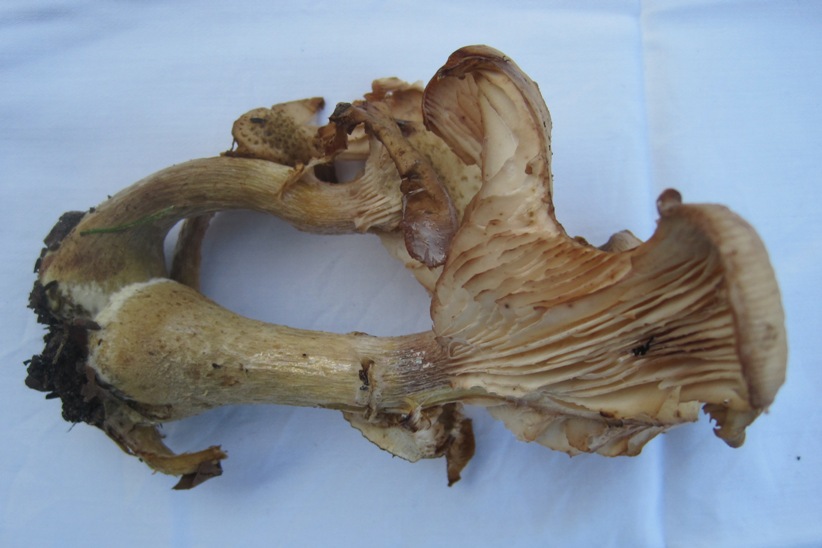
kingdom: Fungi
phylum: Basidiomycota
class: Agaricomycetes
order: Agaricales
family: Physalacriaceae
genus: Armillaria
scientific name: Armillaria lutea
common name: køllestokket honningsvamp
